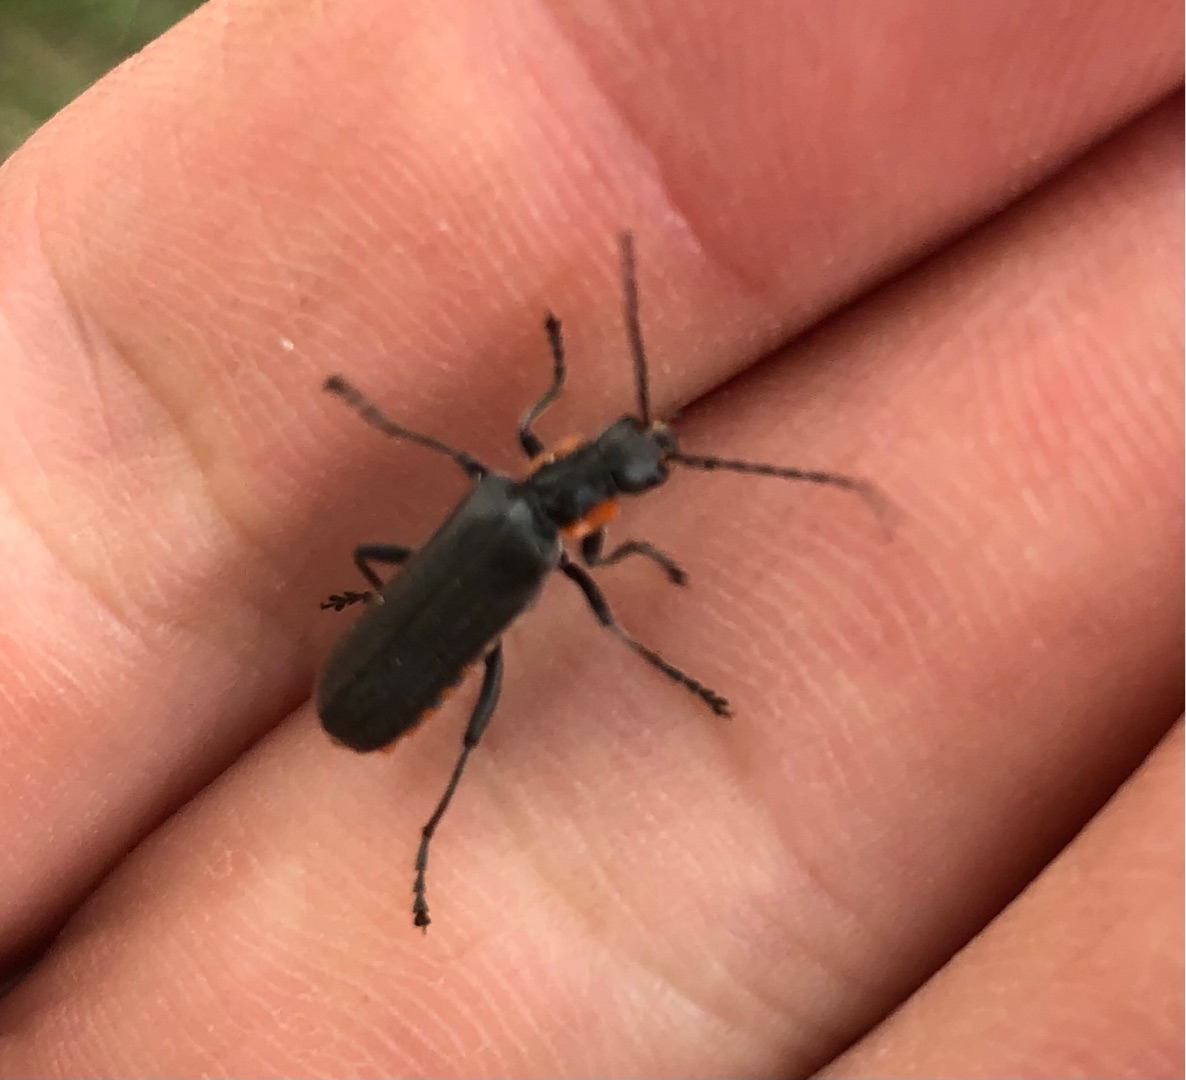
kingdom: Animalia
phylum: Arthropoda
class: Insecta
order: Coleoptera
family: Cantharidae
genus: Cantharis
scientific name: Cantharis obscura
